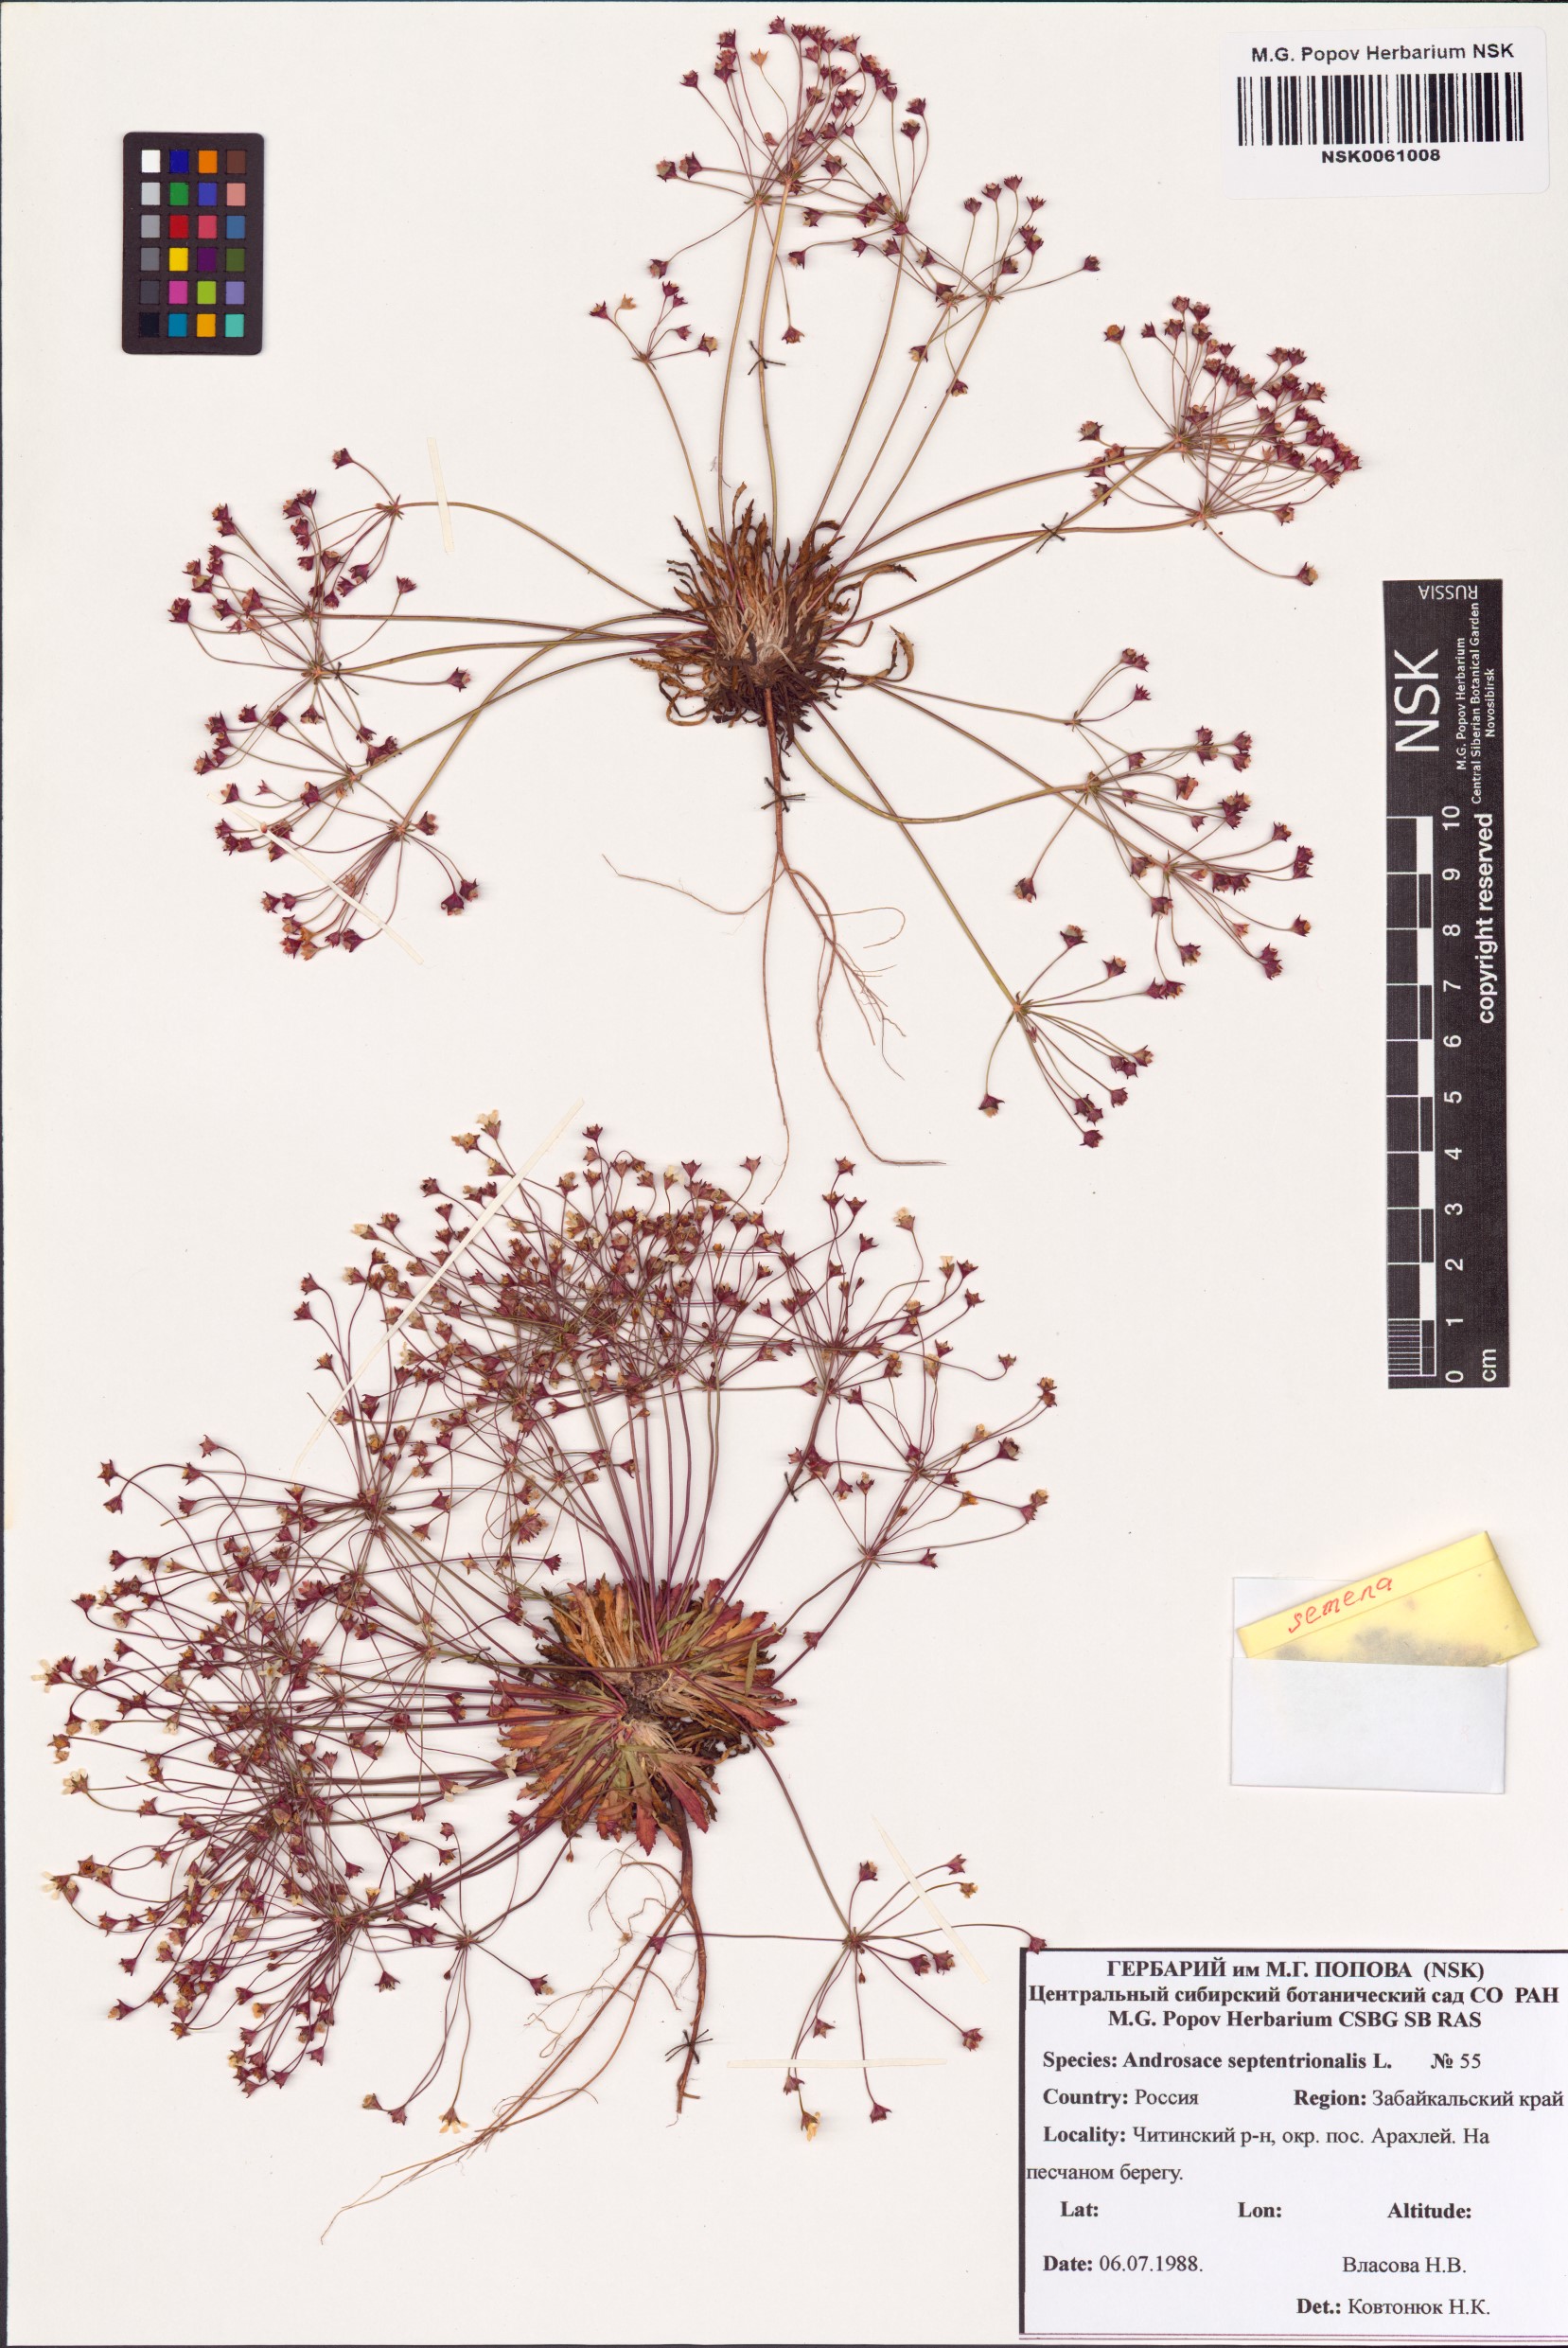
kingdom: Plantae
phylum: Tracheophyta
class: Magnoliopsida
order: Ericales
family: Primulaceae
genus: Androsace
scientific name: Androsace septentrionalis
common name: Hairy northern fairy-candelabra
